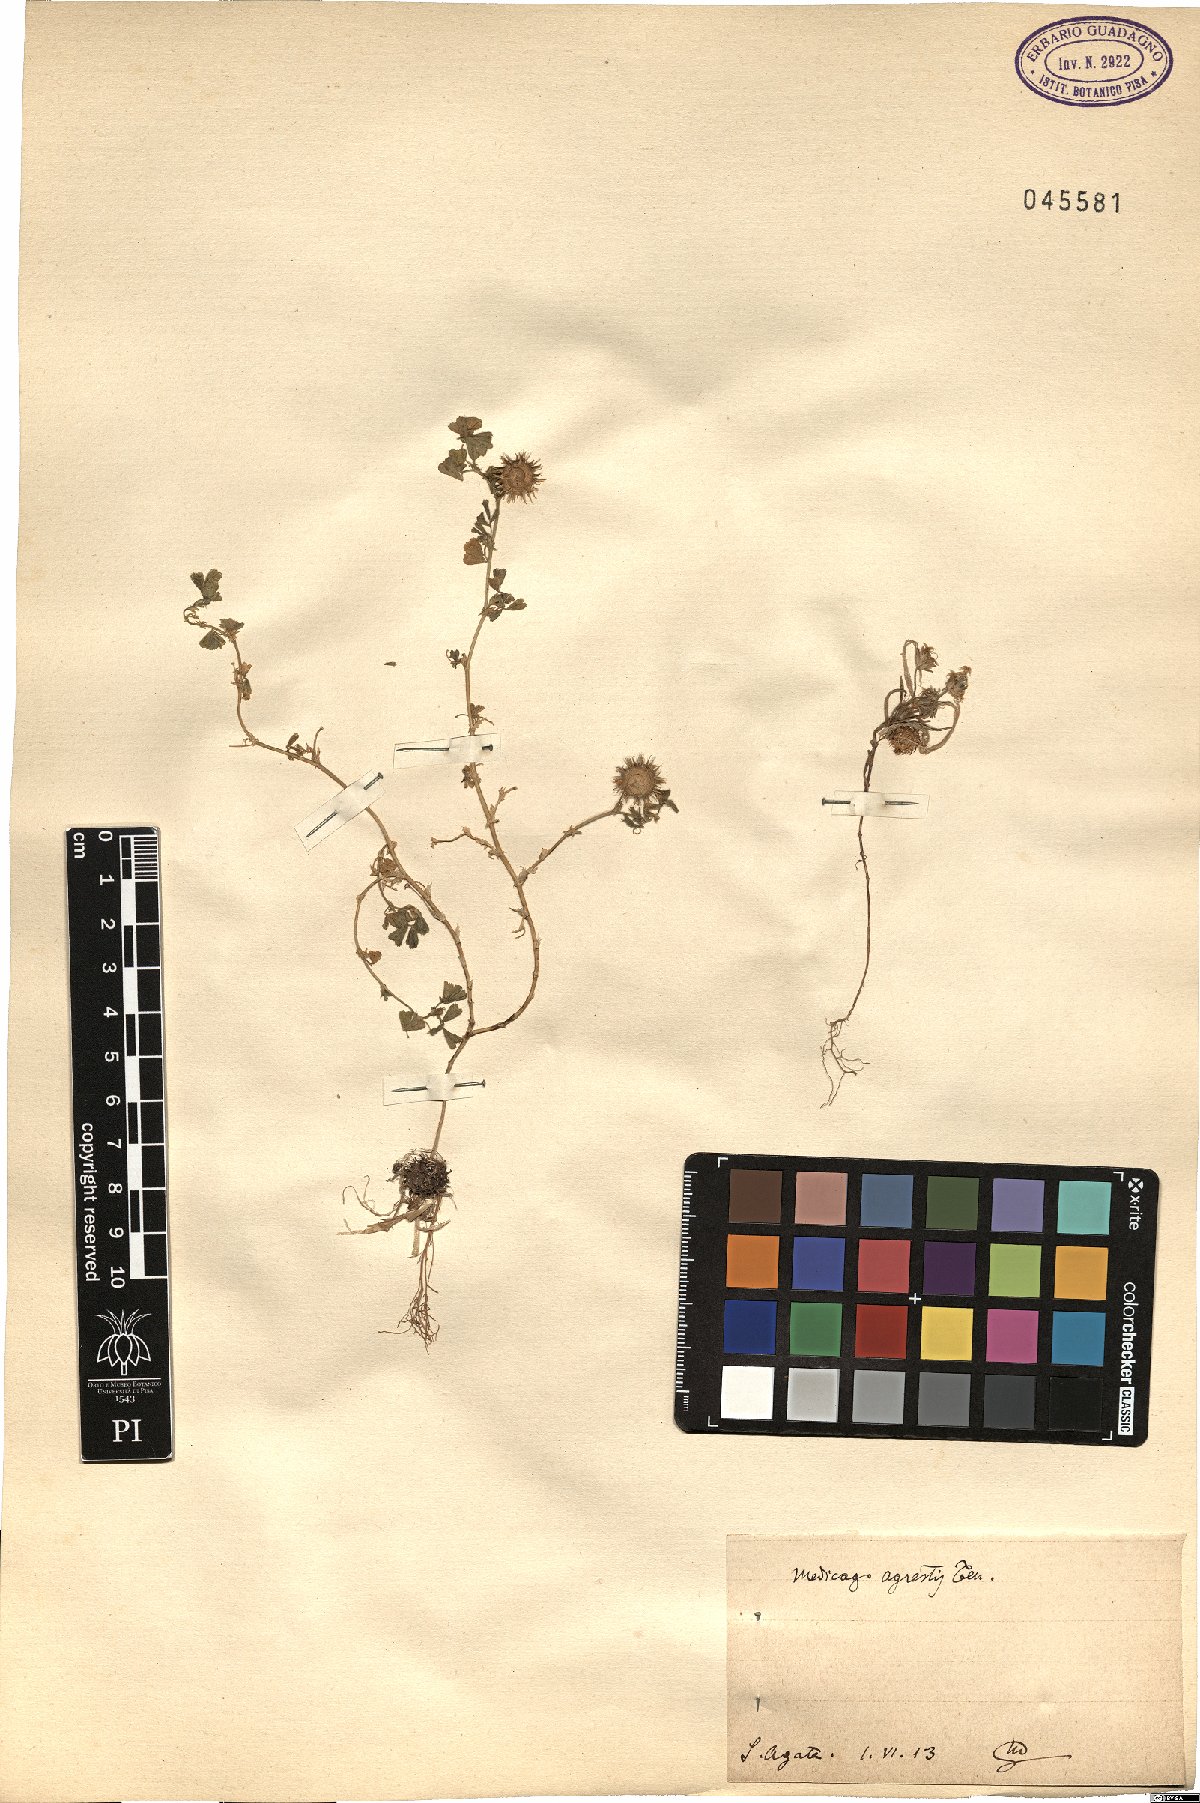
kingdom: Plantae
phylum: Tracheophyta
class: Magnoliopsida
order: Fabales
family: Fabaceae
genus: Medicago
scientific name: Medicago rigidula
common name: Tifton medic
